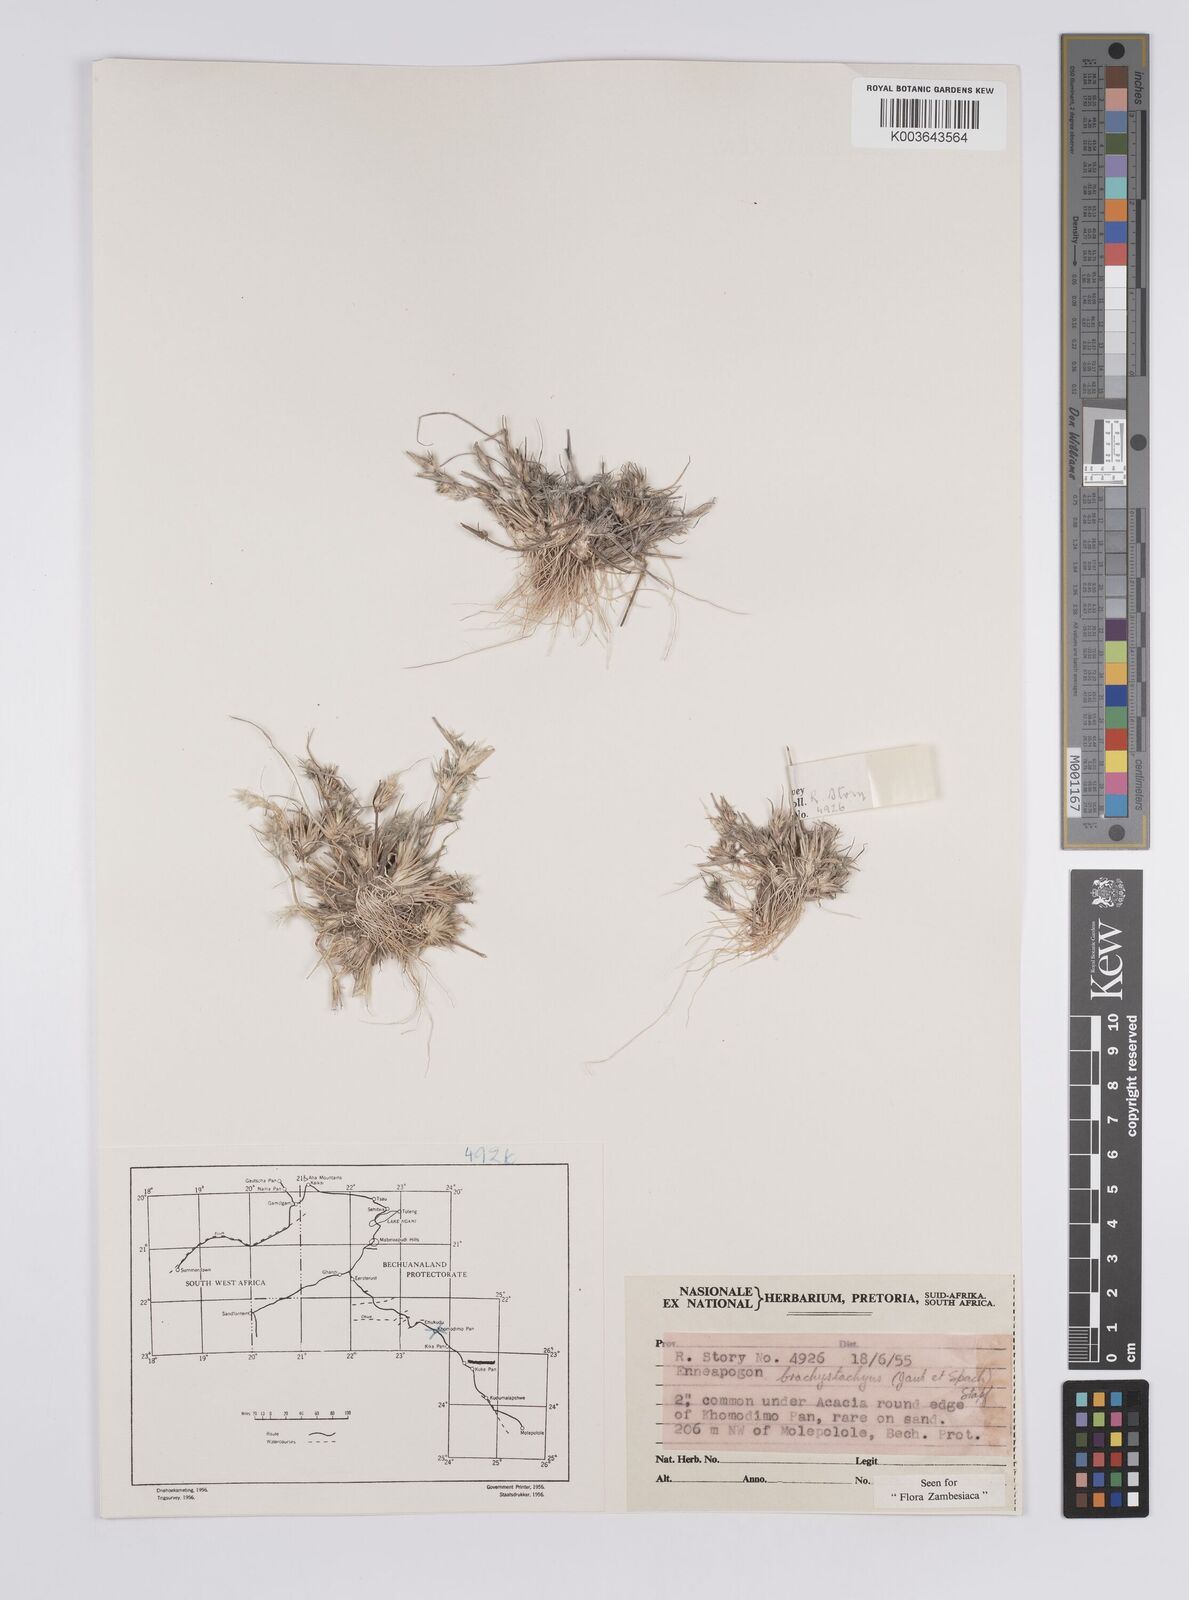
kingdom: Plantae
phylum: Tracheophyta
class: Liliopsida
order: Poales
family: Poaceae
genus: Enneapogon
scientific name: Enneapogon desvauxii
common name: Feather pappus grass
